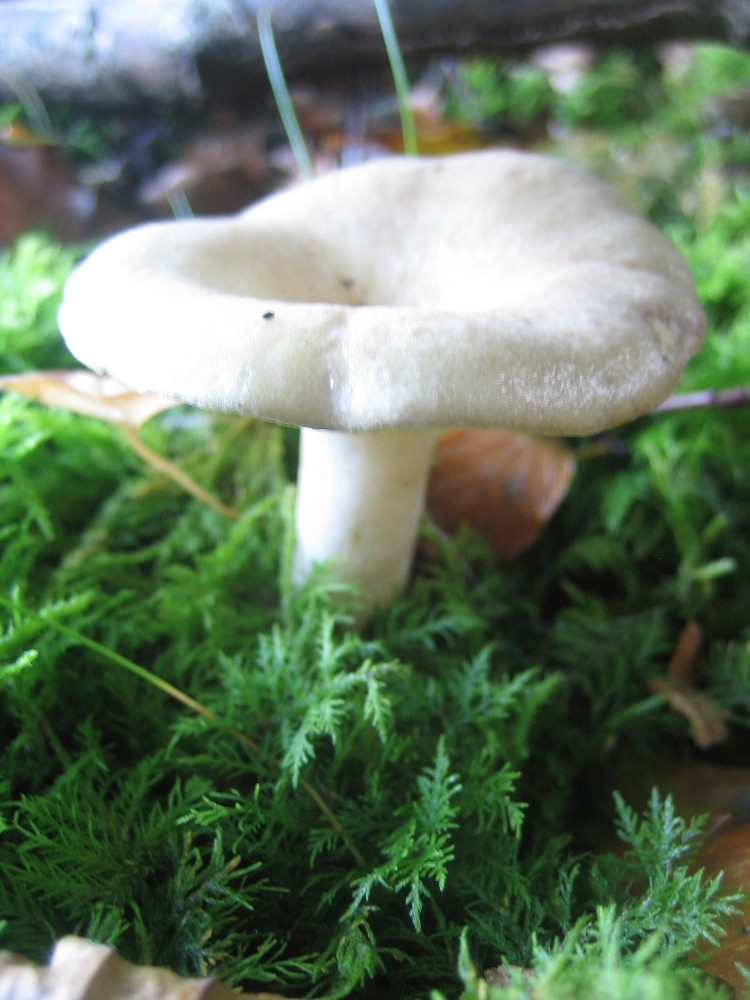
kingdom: Fungi
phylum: Basidiomycota
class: Agaricomycetes
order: Russulales
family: Russulaceae
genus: Lactarius
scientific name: Lactarius blennius
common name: dråbeplettet mælkehat
